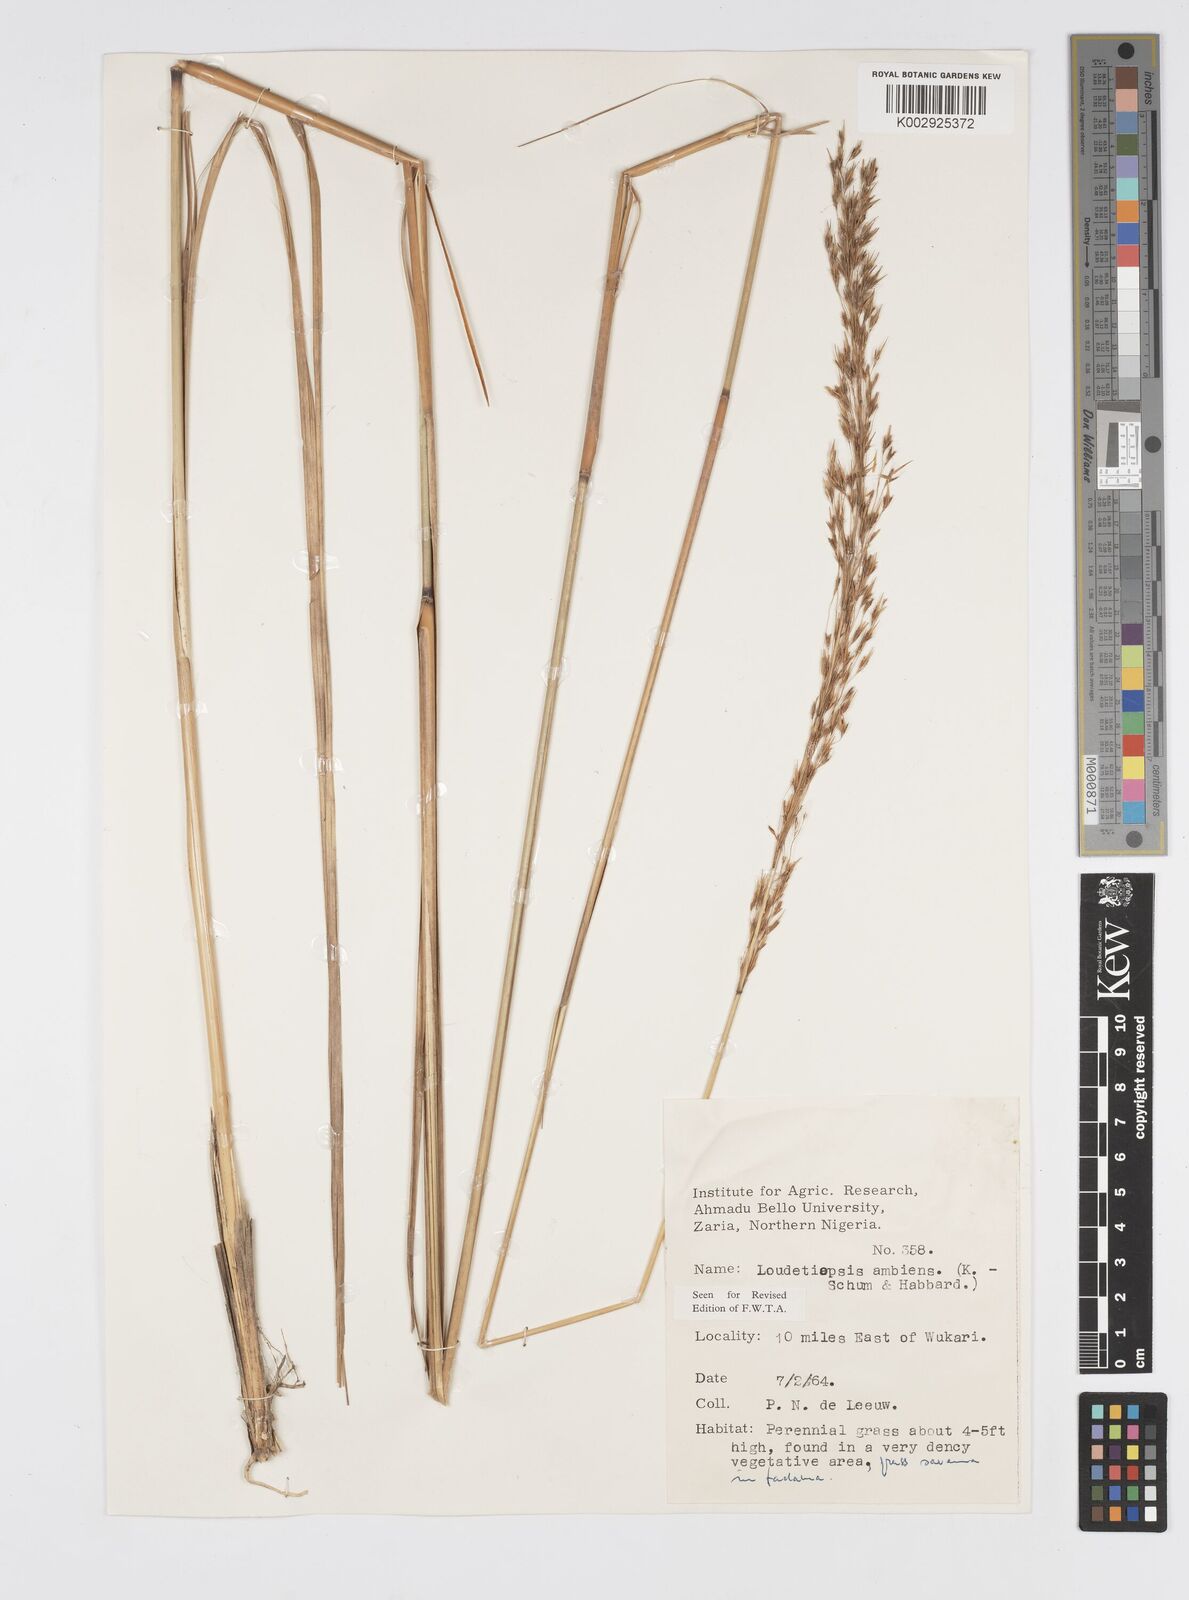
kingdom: Plantae
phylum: Tracheophyta
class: Liliopsida
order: Poales
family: Poaceae
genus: Loudetiopsis
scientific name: Loudetiopsis ambiens
